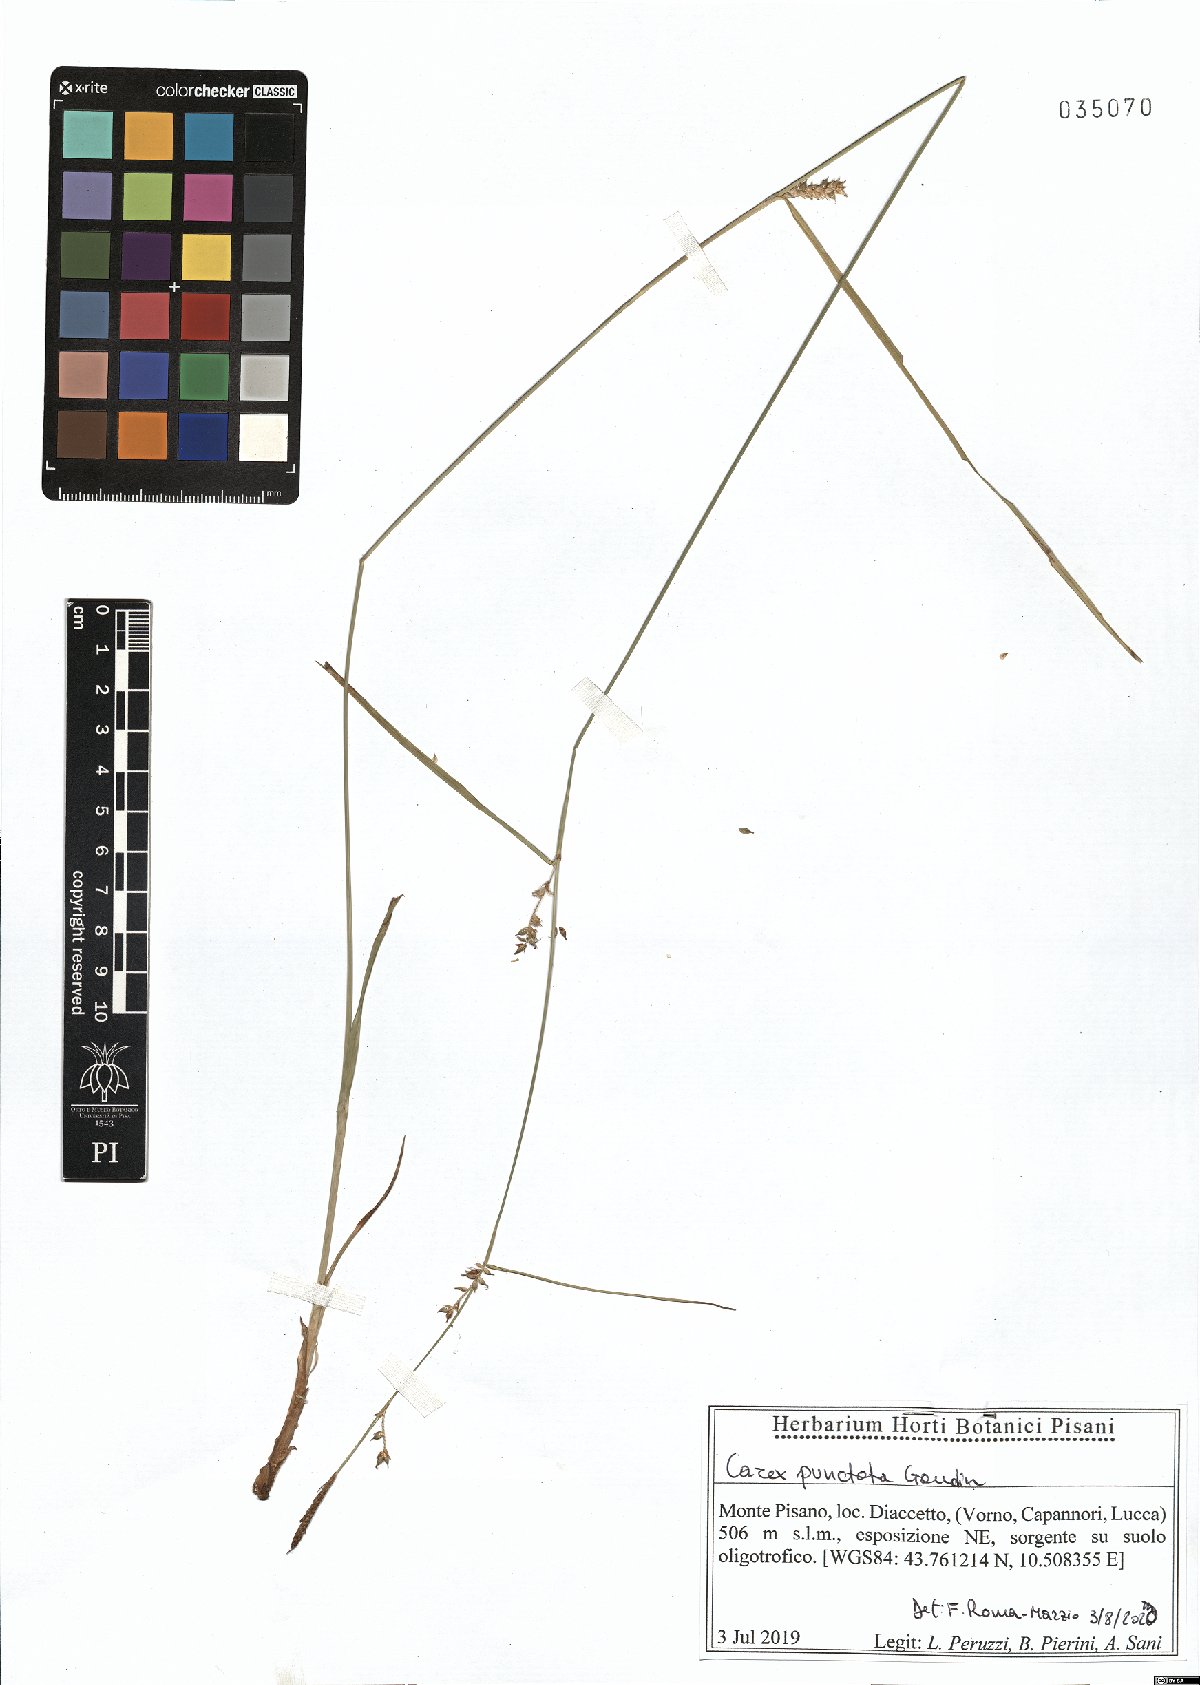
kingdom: Plantae
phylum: Tracheophyta
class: Liliopsida
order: Poales
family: Cyperaceae
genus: Carex
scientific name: Carex punctata
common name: Dotted sedge
